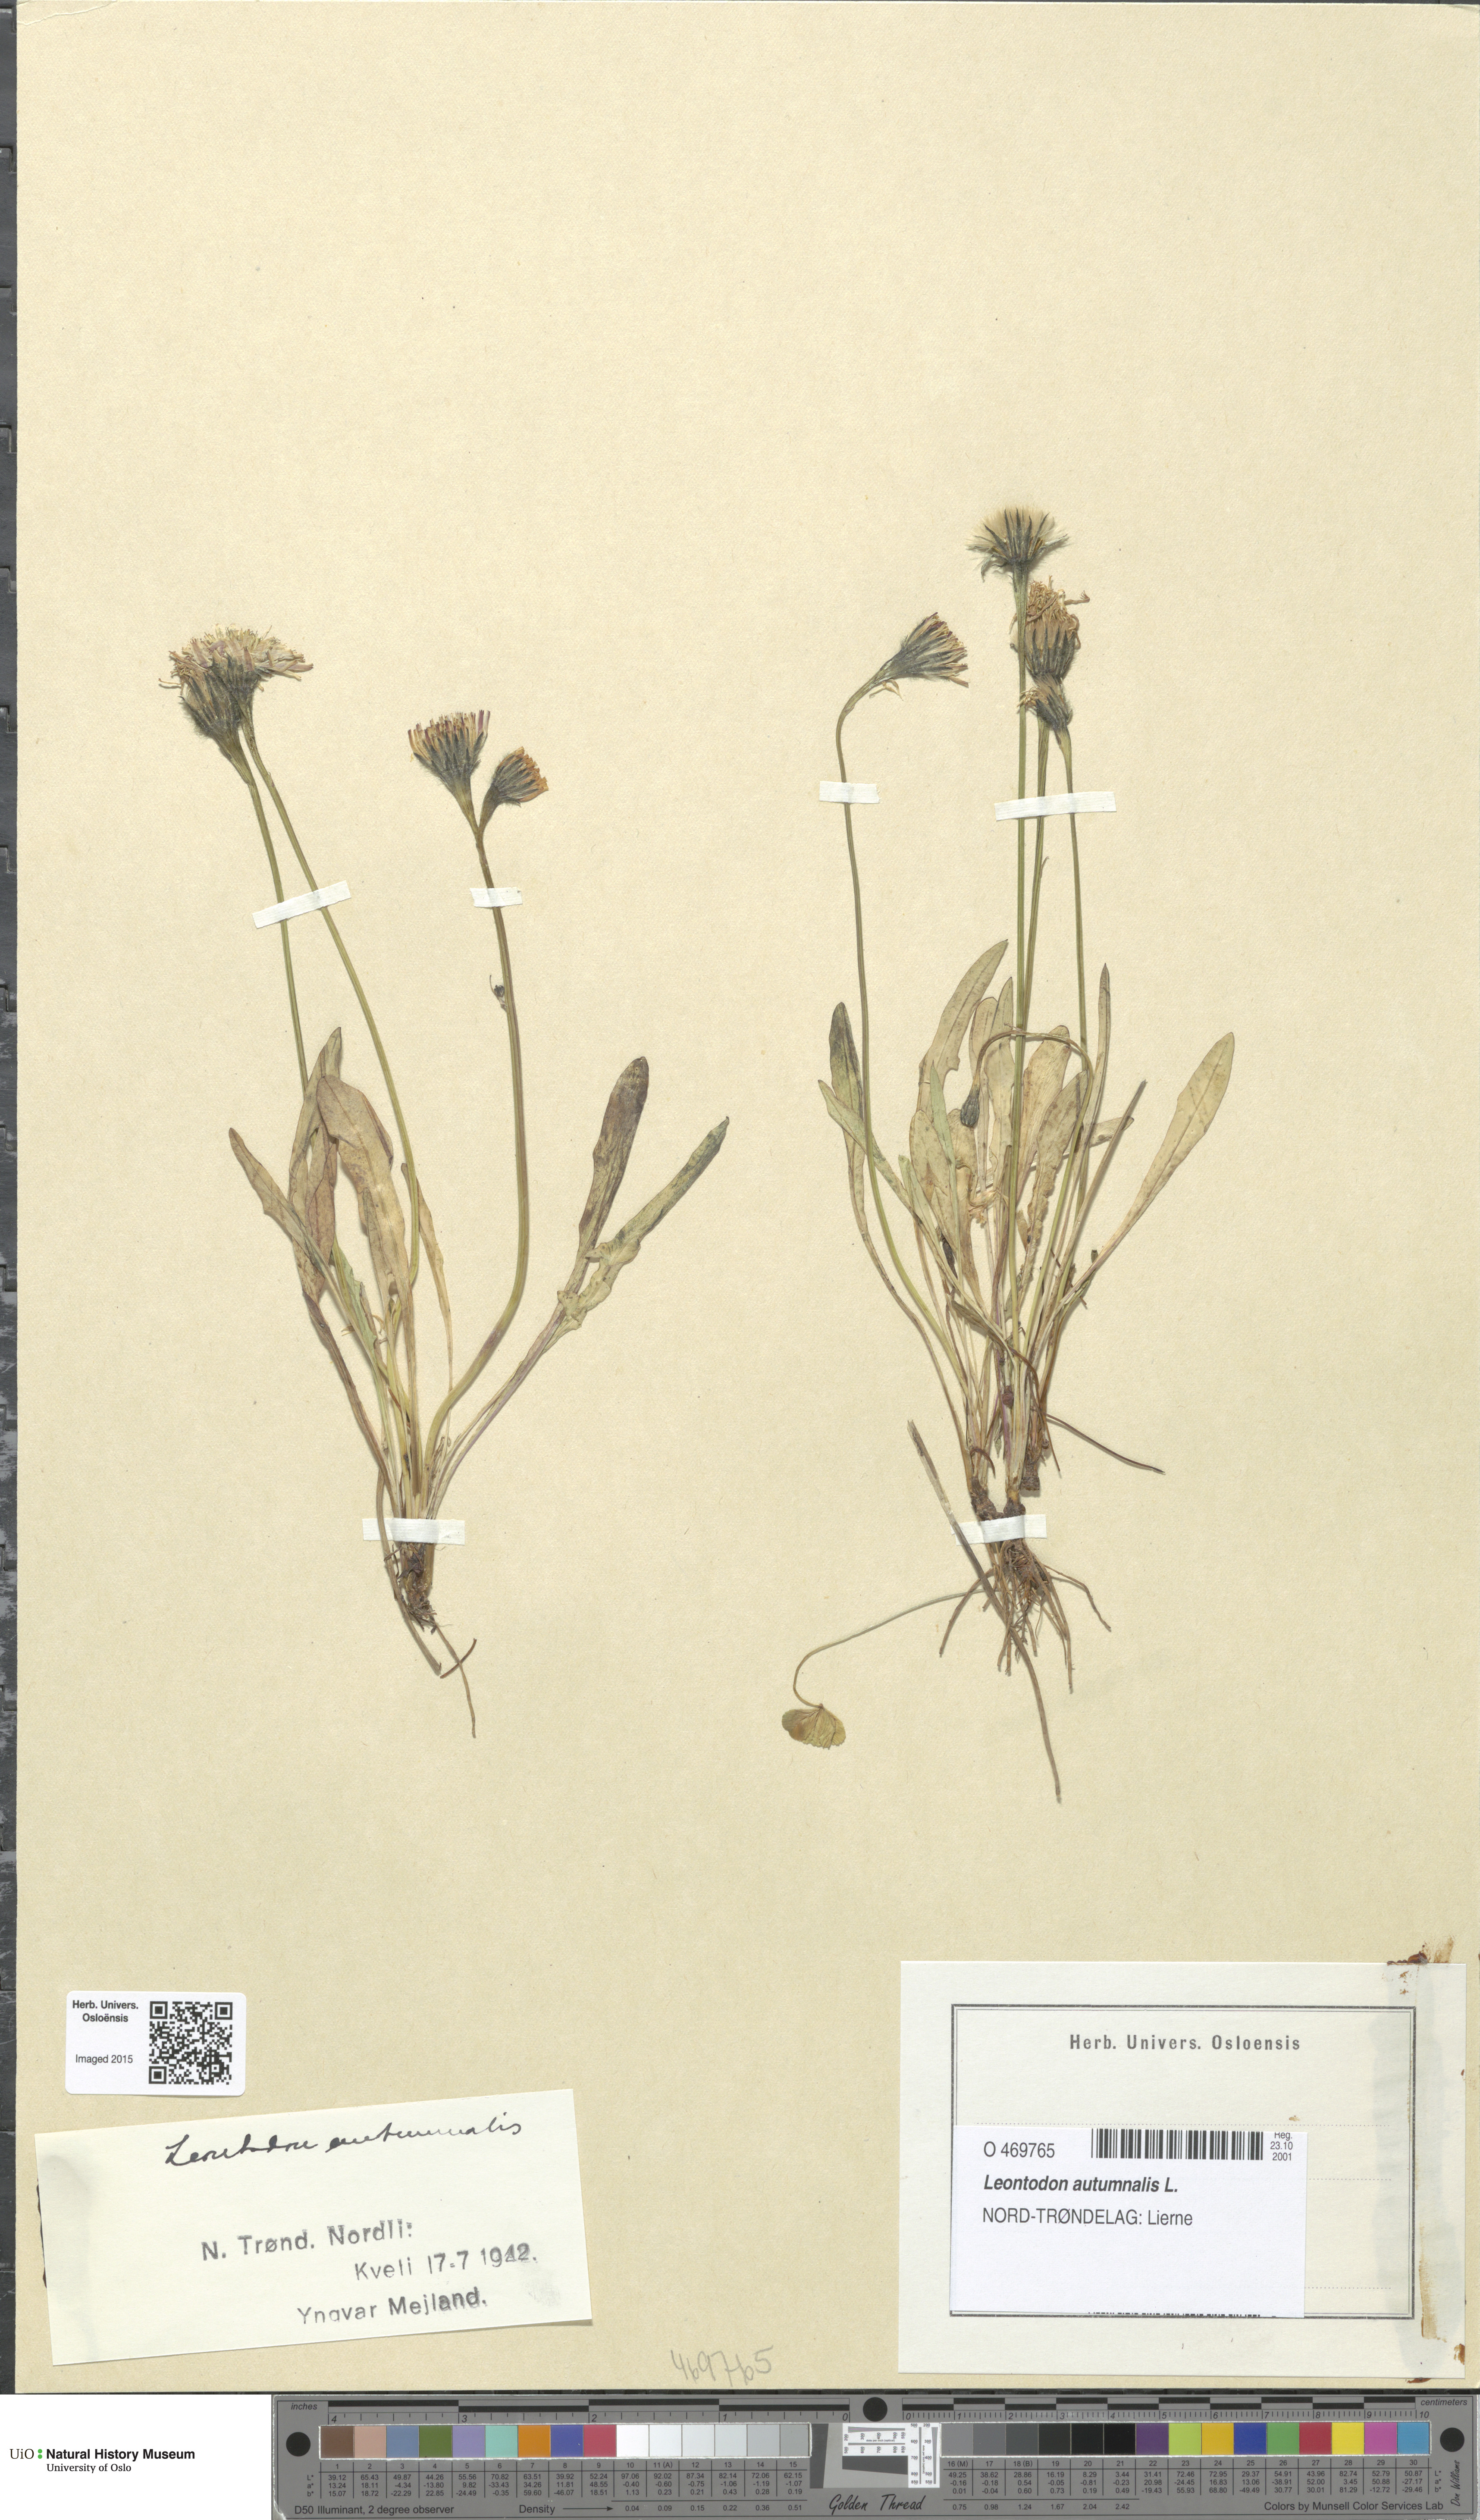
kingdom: Plantae
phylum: Tracheophyta
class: Magnoliopsida
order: Asterales
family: Asteraceae
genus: Scorzoneroides
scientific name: Scorzoneroides autumnalis
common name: Autumn hawkbit
